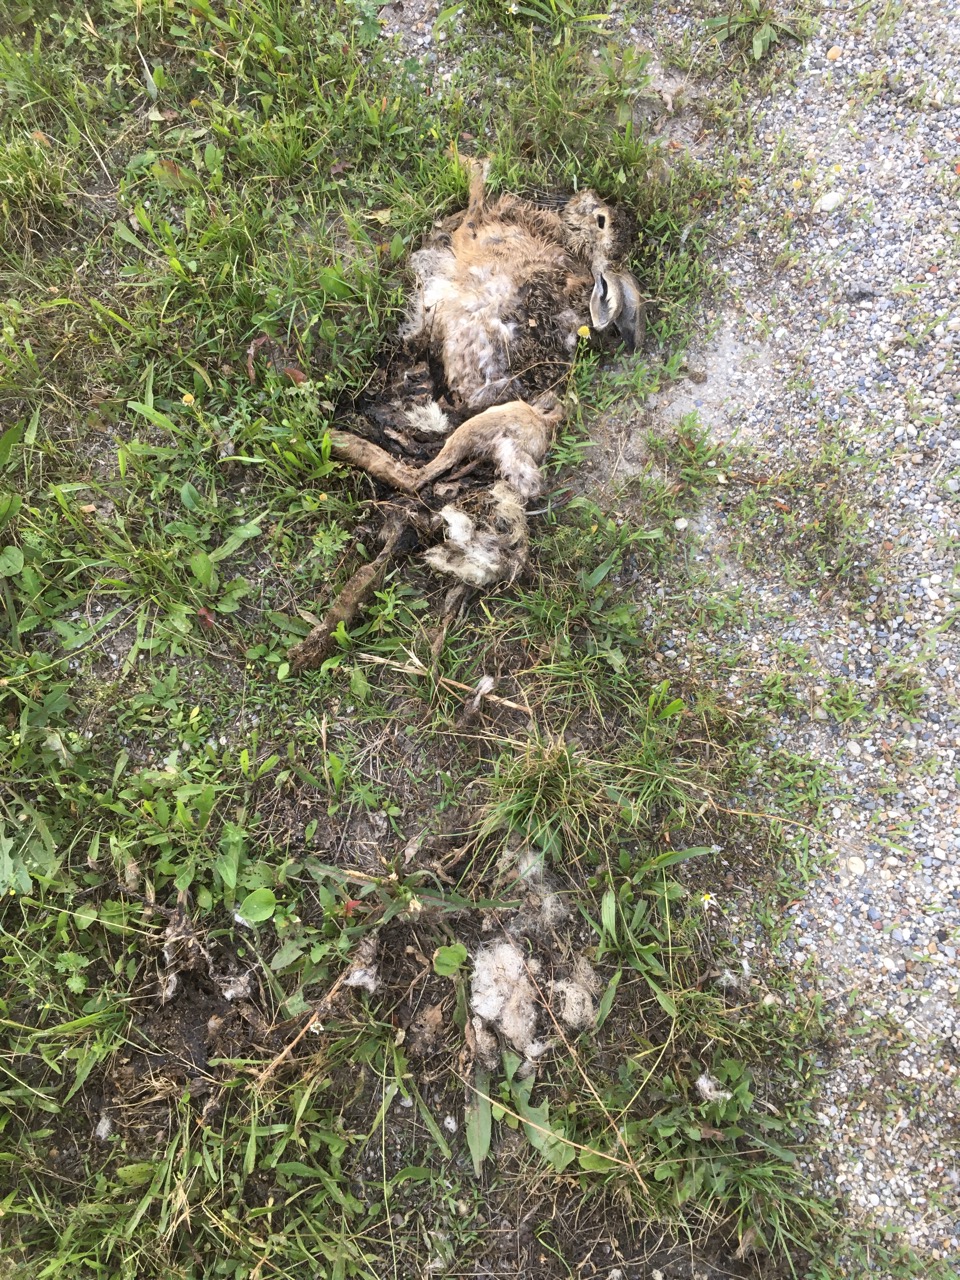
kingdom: Animalia
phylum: Chordata
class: Mammalia
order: Lagomorpha
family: Leporidae
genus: Lepus
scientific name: Lepus europaeus
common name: European hare
